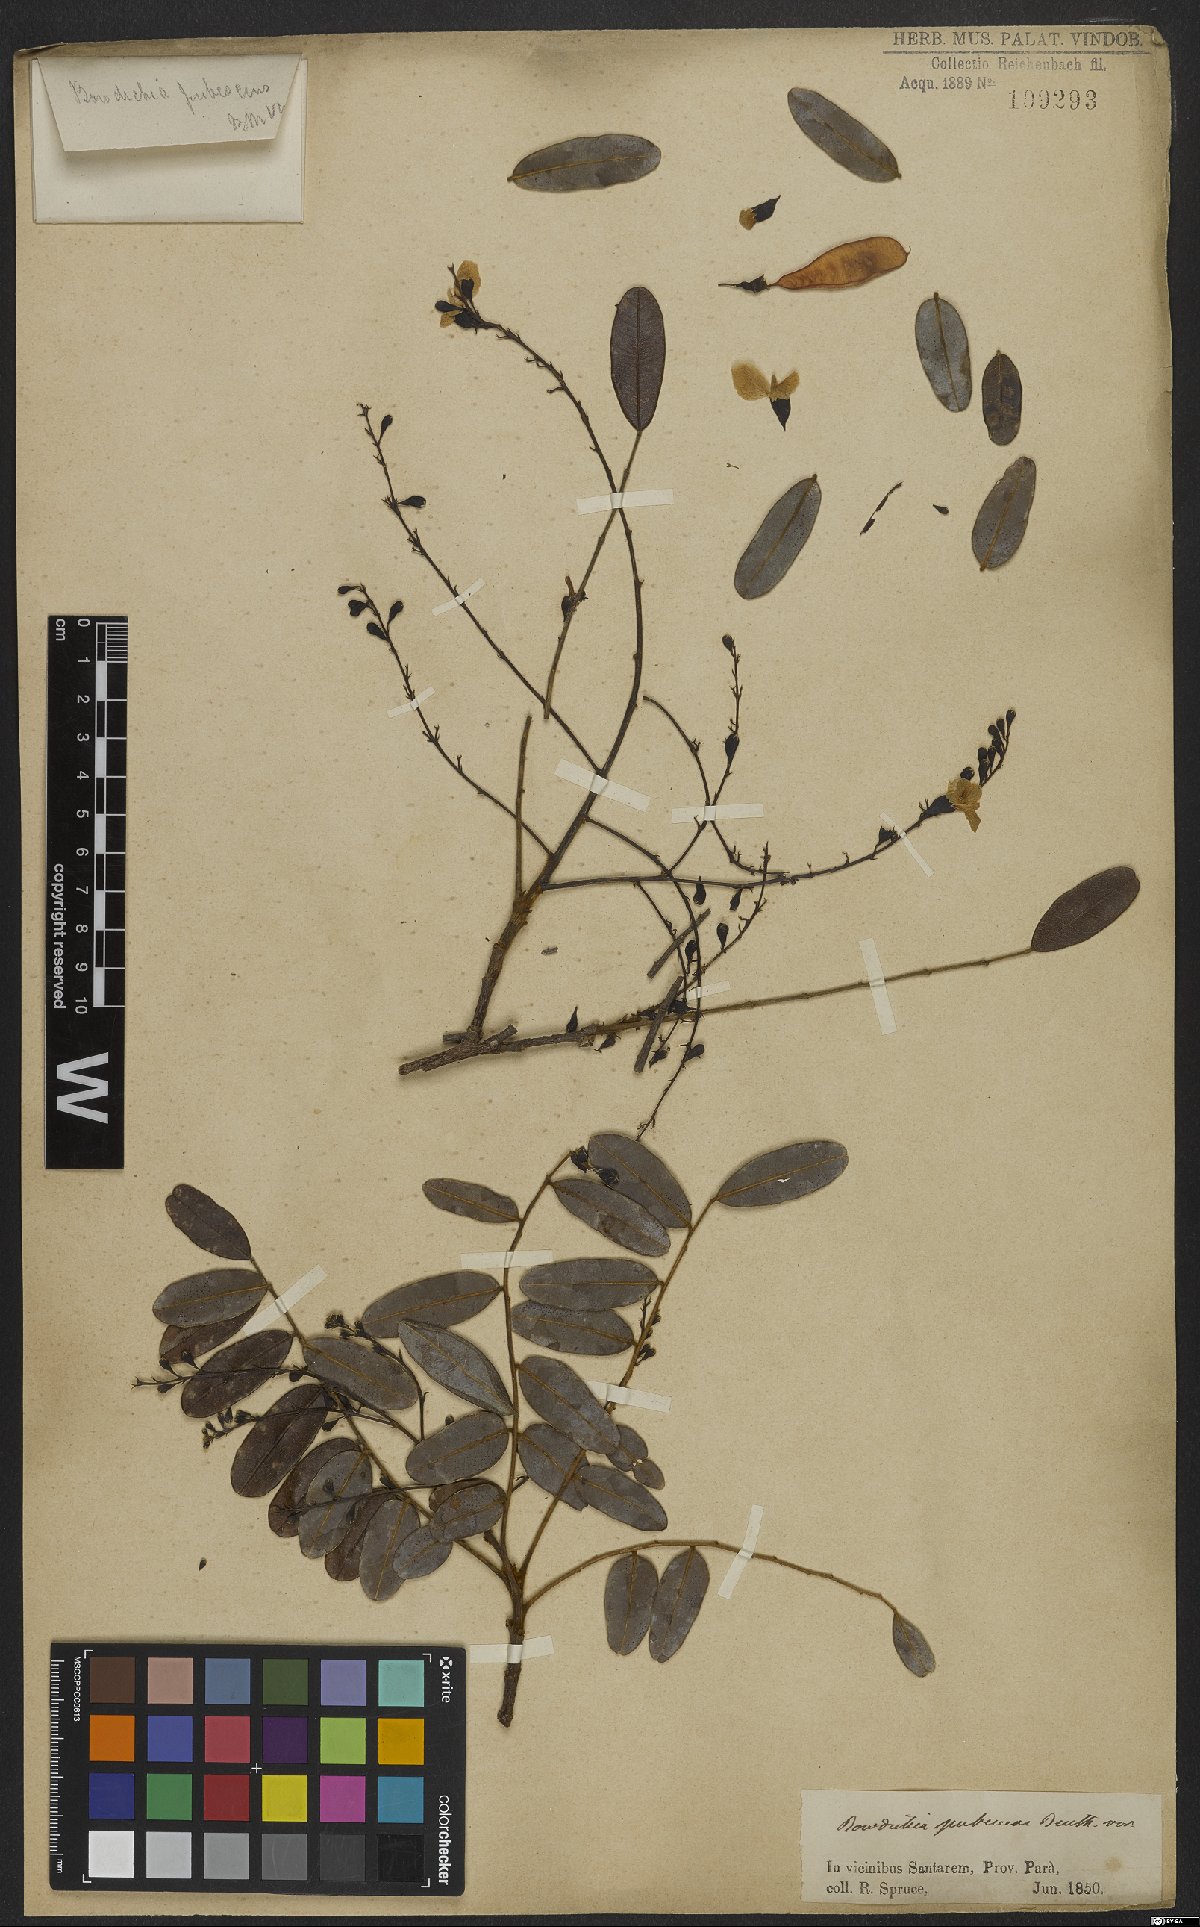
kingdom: Plantae
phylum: Tracheophyta
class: Magnoliopsida
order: Fabales
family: Fabaceae
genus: Bowdichia
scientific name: Bowdichia virgilioides
